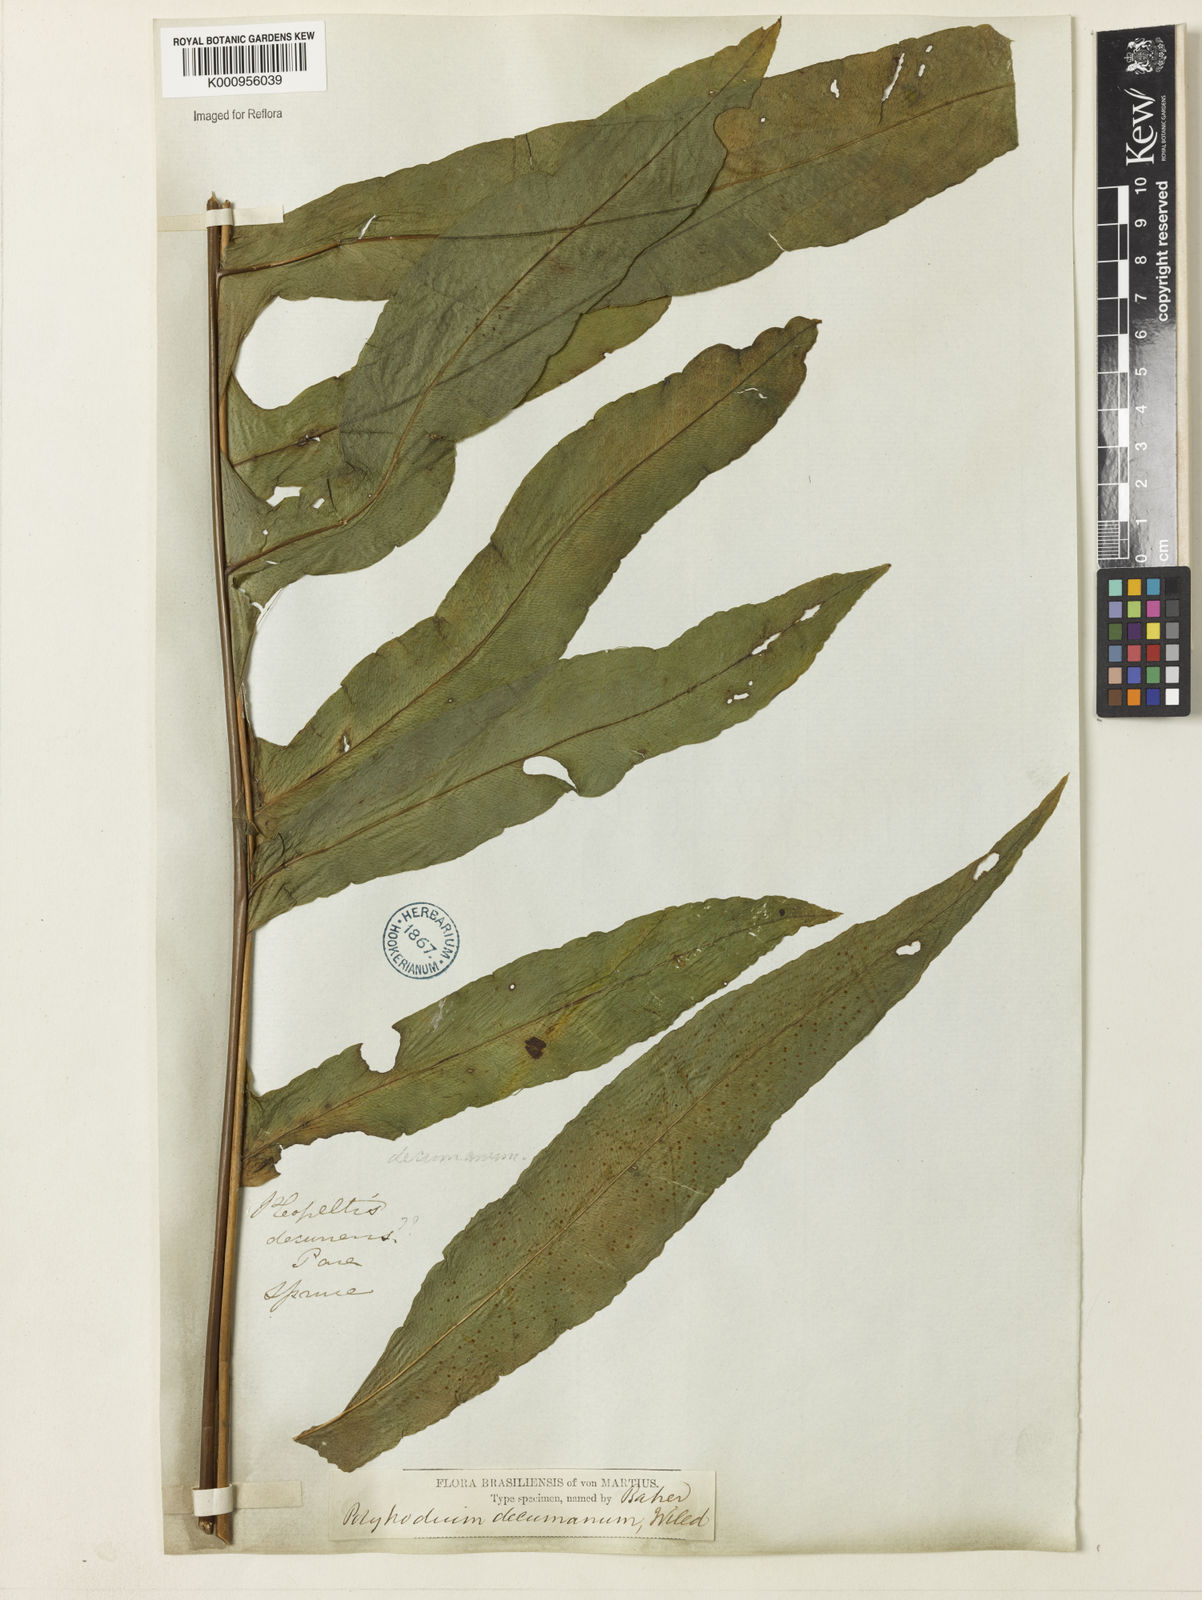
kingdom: Plantae
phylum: Tracheophyta
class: Polypodiopsida
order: Polypodiales
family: Polypodiaceae
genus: Phlebodium
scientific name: Phlebodium decumanum
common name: Golden polypod
